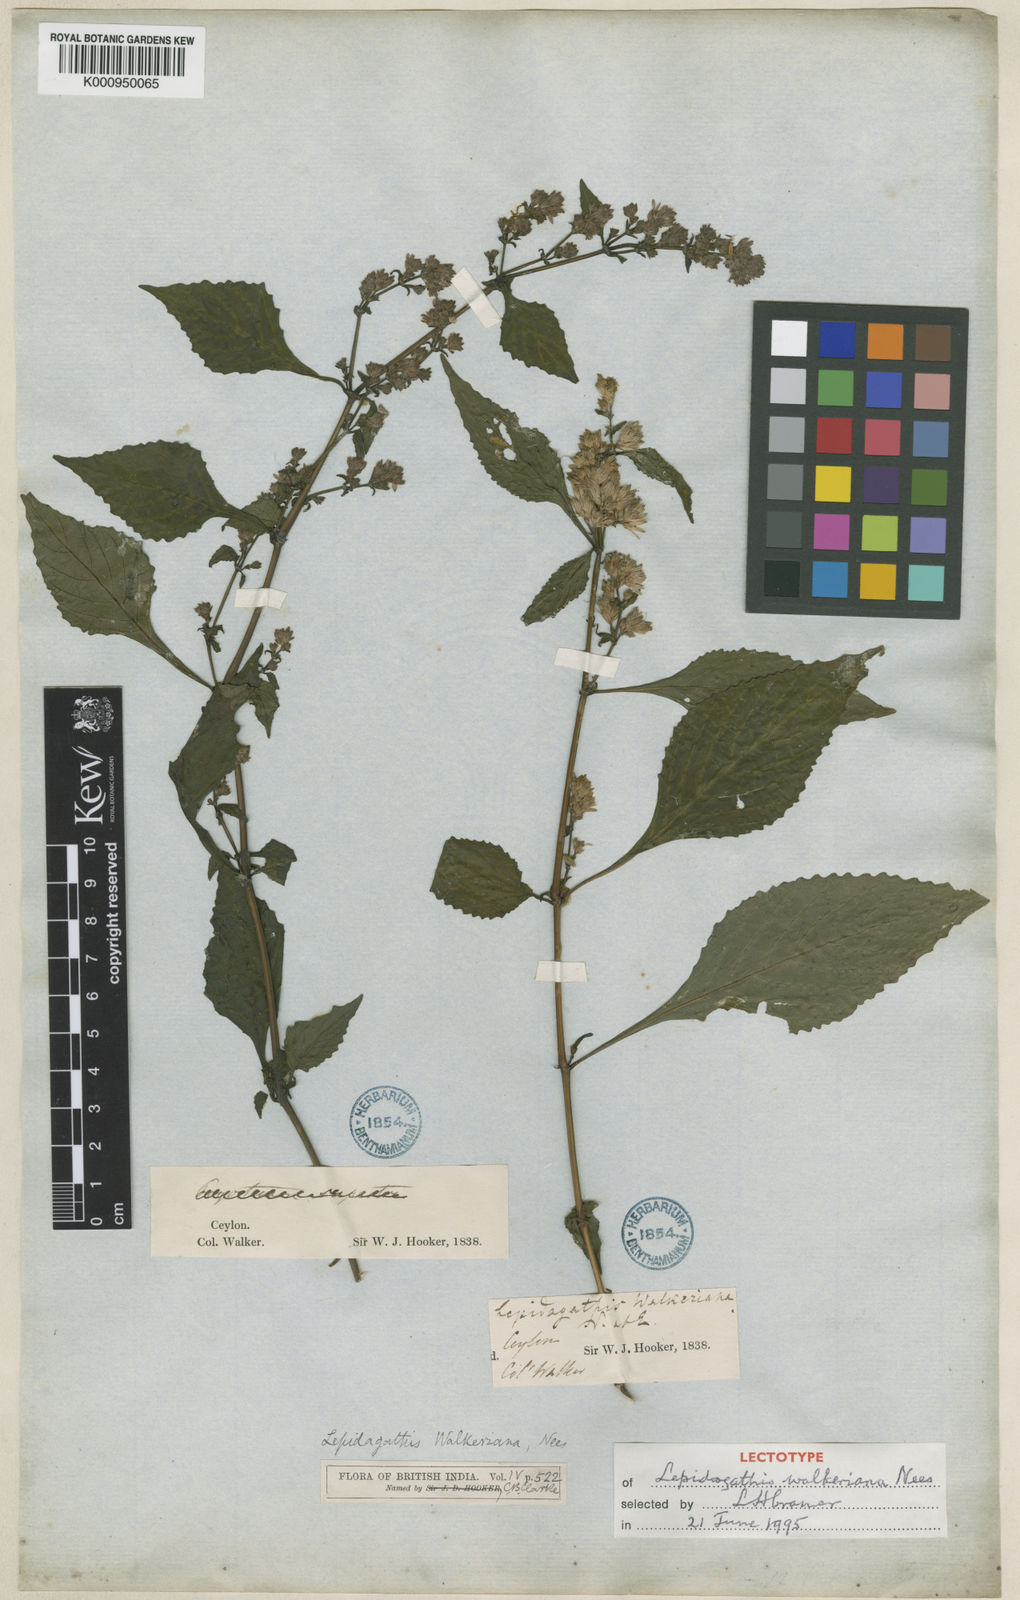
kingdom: Plantae
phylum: Tracheophyta
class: Magnoliopsida
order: Lamiales
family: Acanthaceae
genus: Lepidagathis
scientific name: Lepidagathis walkeriana
